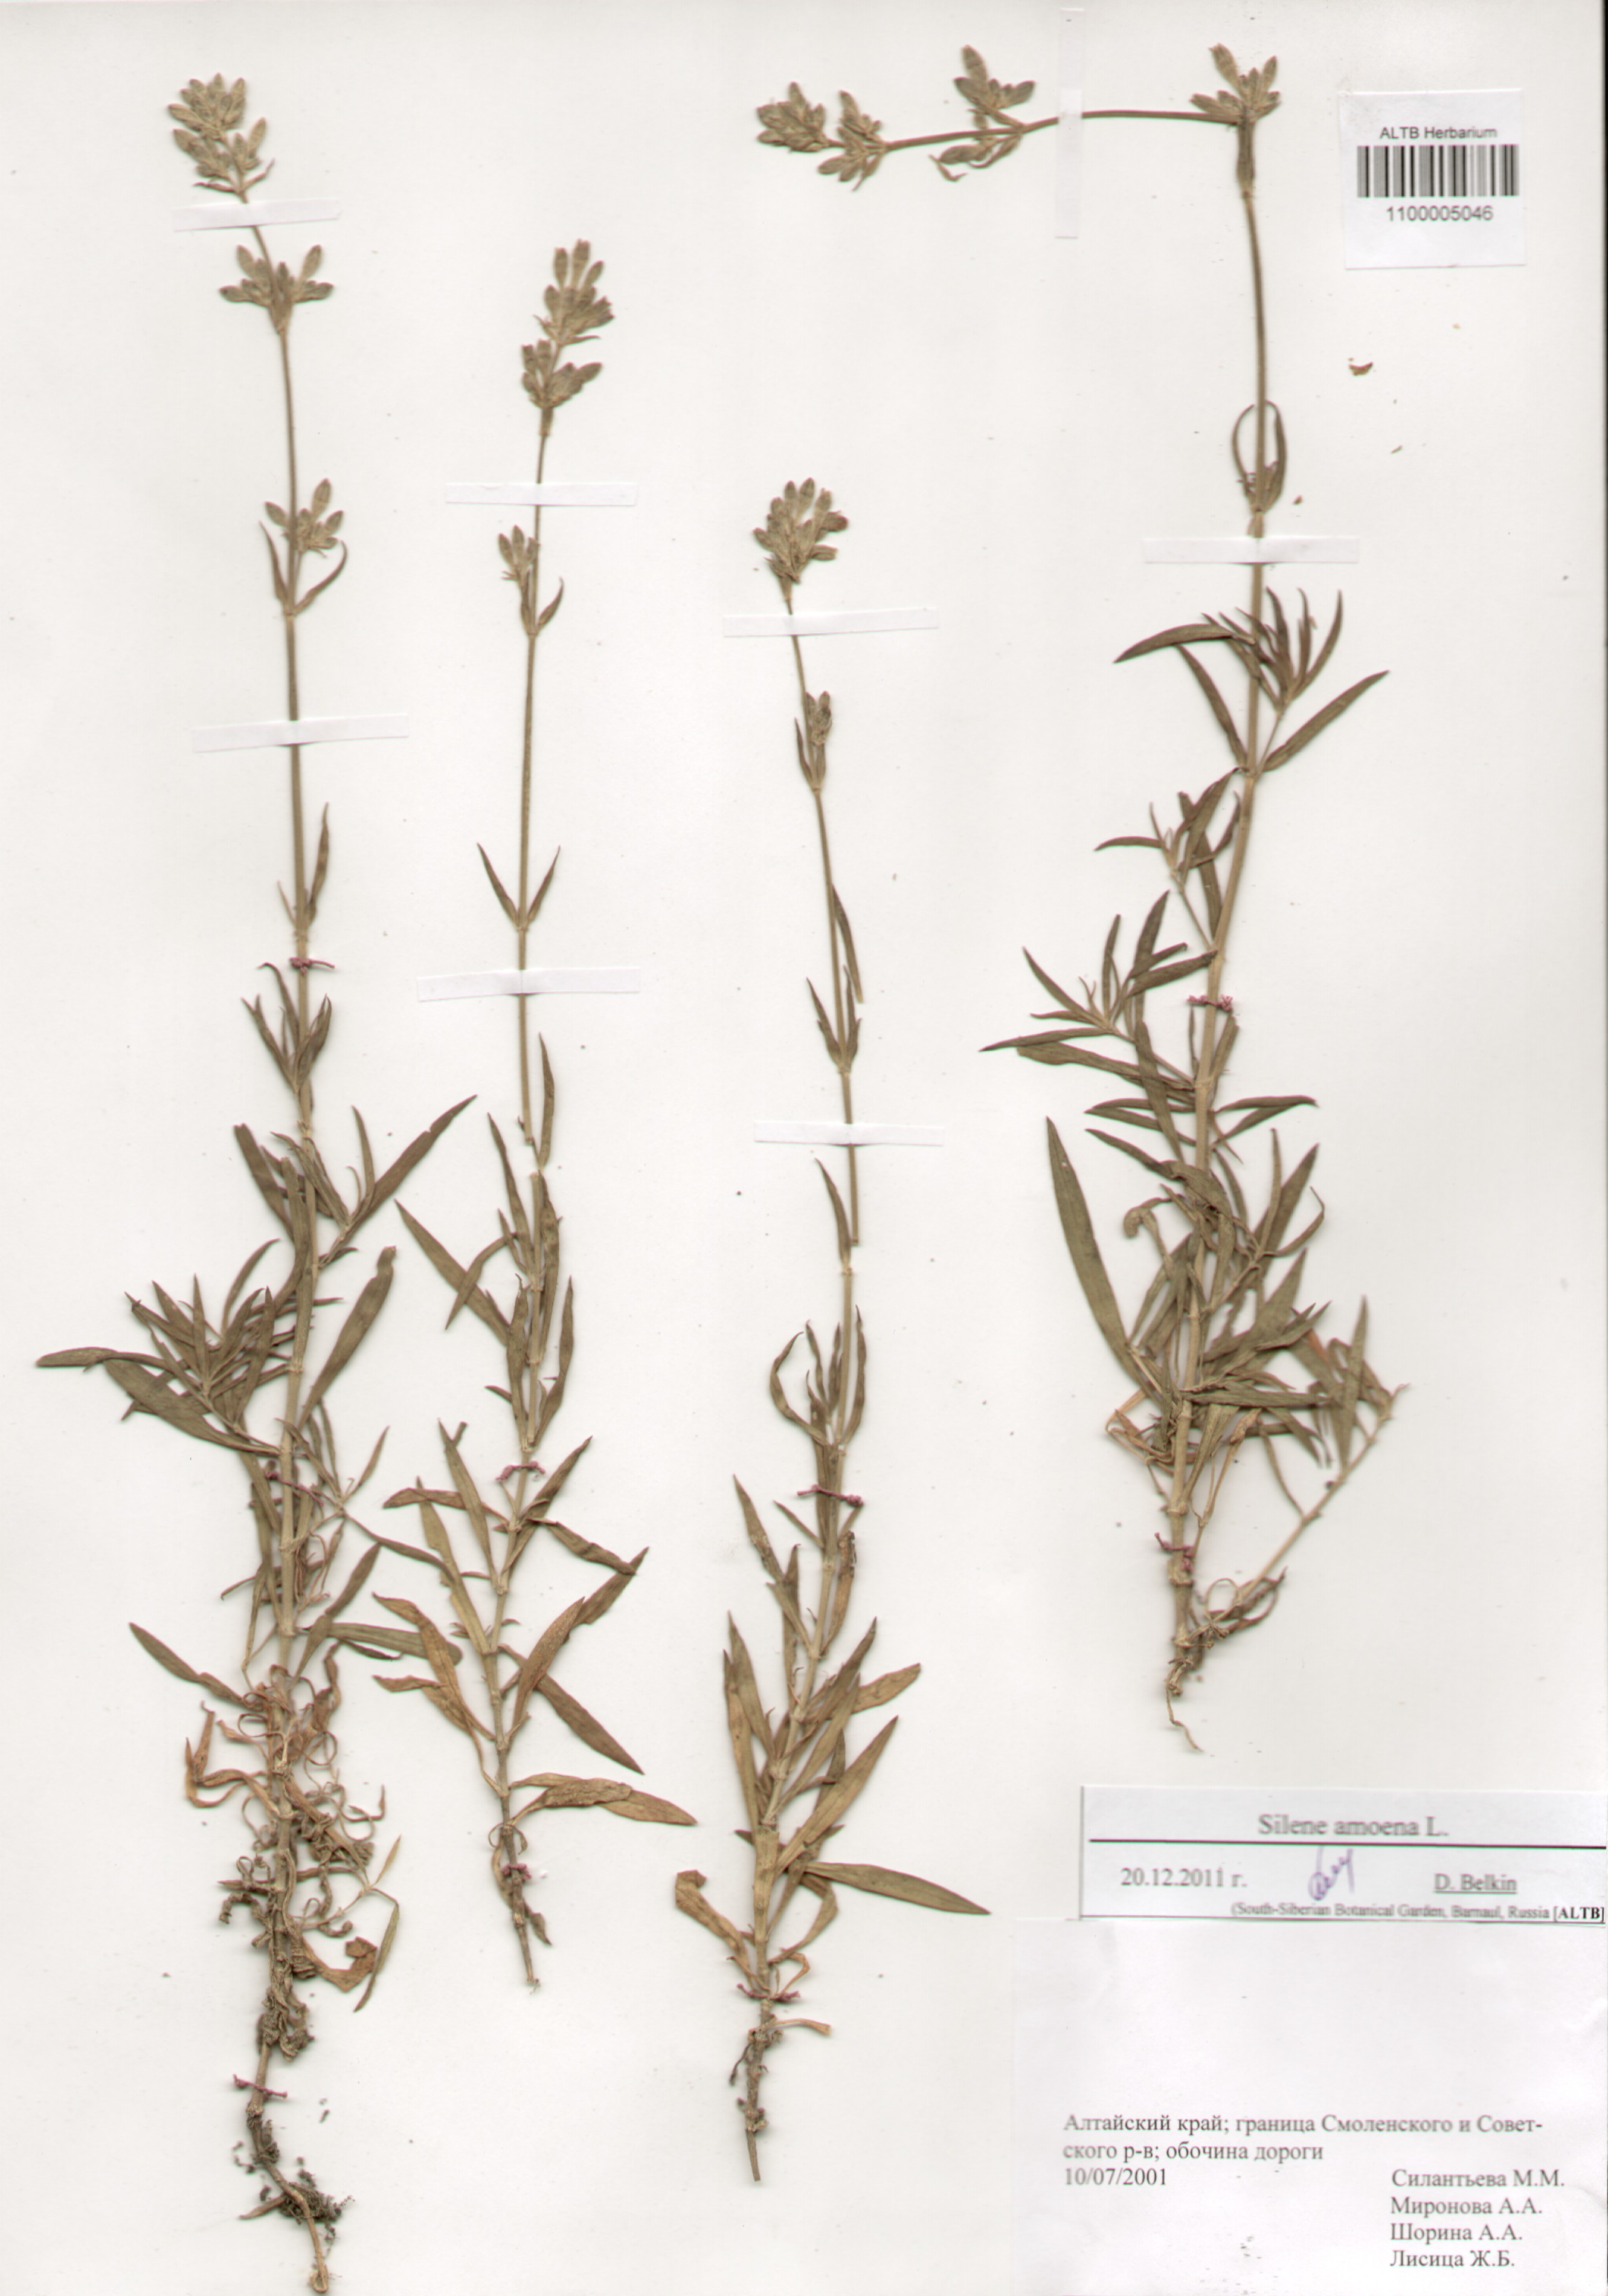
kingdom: Plantae
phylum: Tracheophyta
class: Magnoliopsida
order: Caryophyllales
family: Caryophyllaceae
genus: Silene
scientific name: Silene amoena
